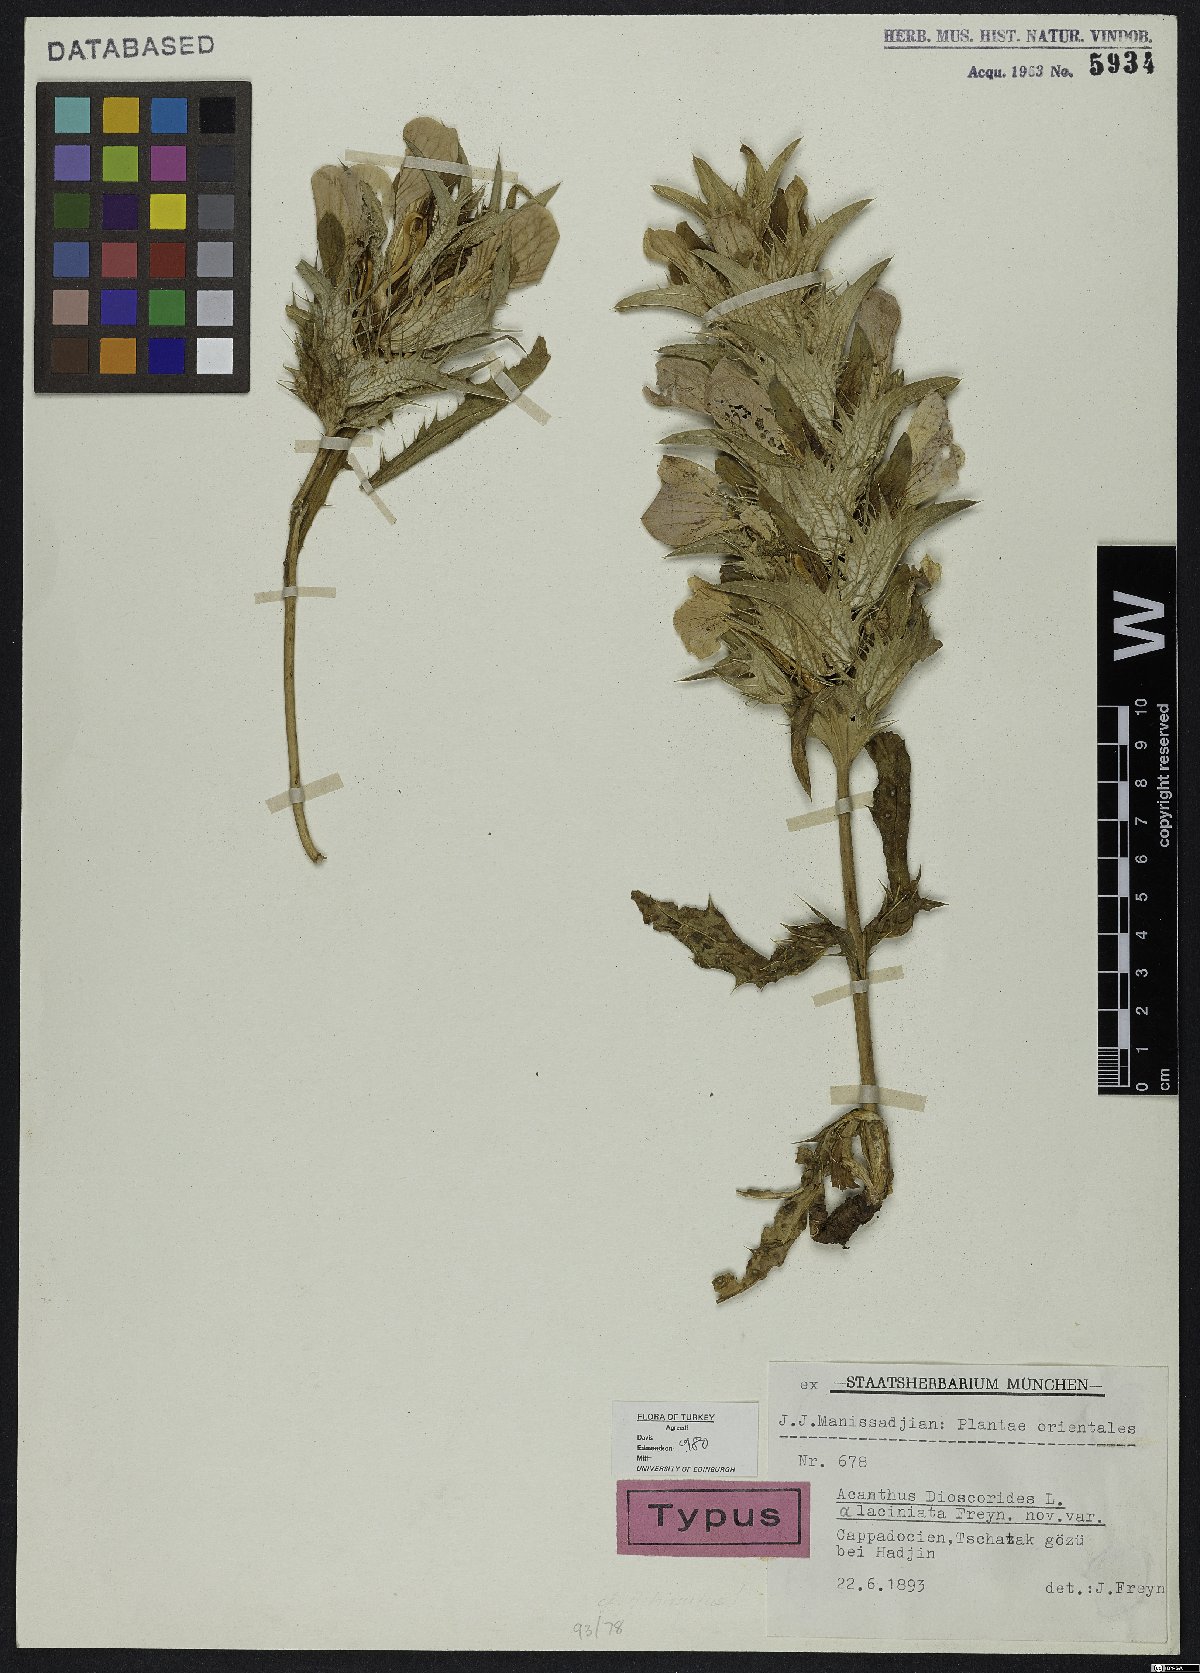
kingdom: Plantae
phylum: Tracheophyta
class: Magnoliopsida
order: Lamiales
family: Acanthaceae
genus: Acanthus
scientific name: Acanthus dioscoridis
